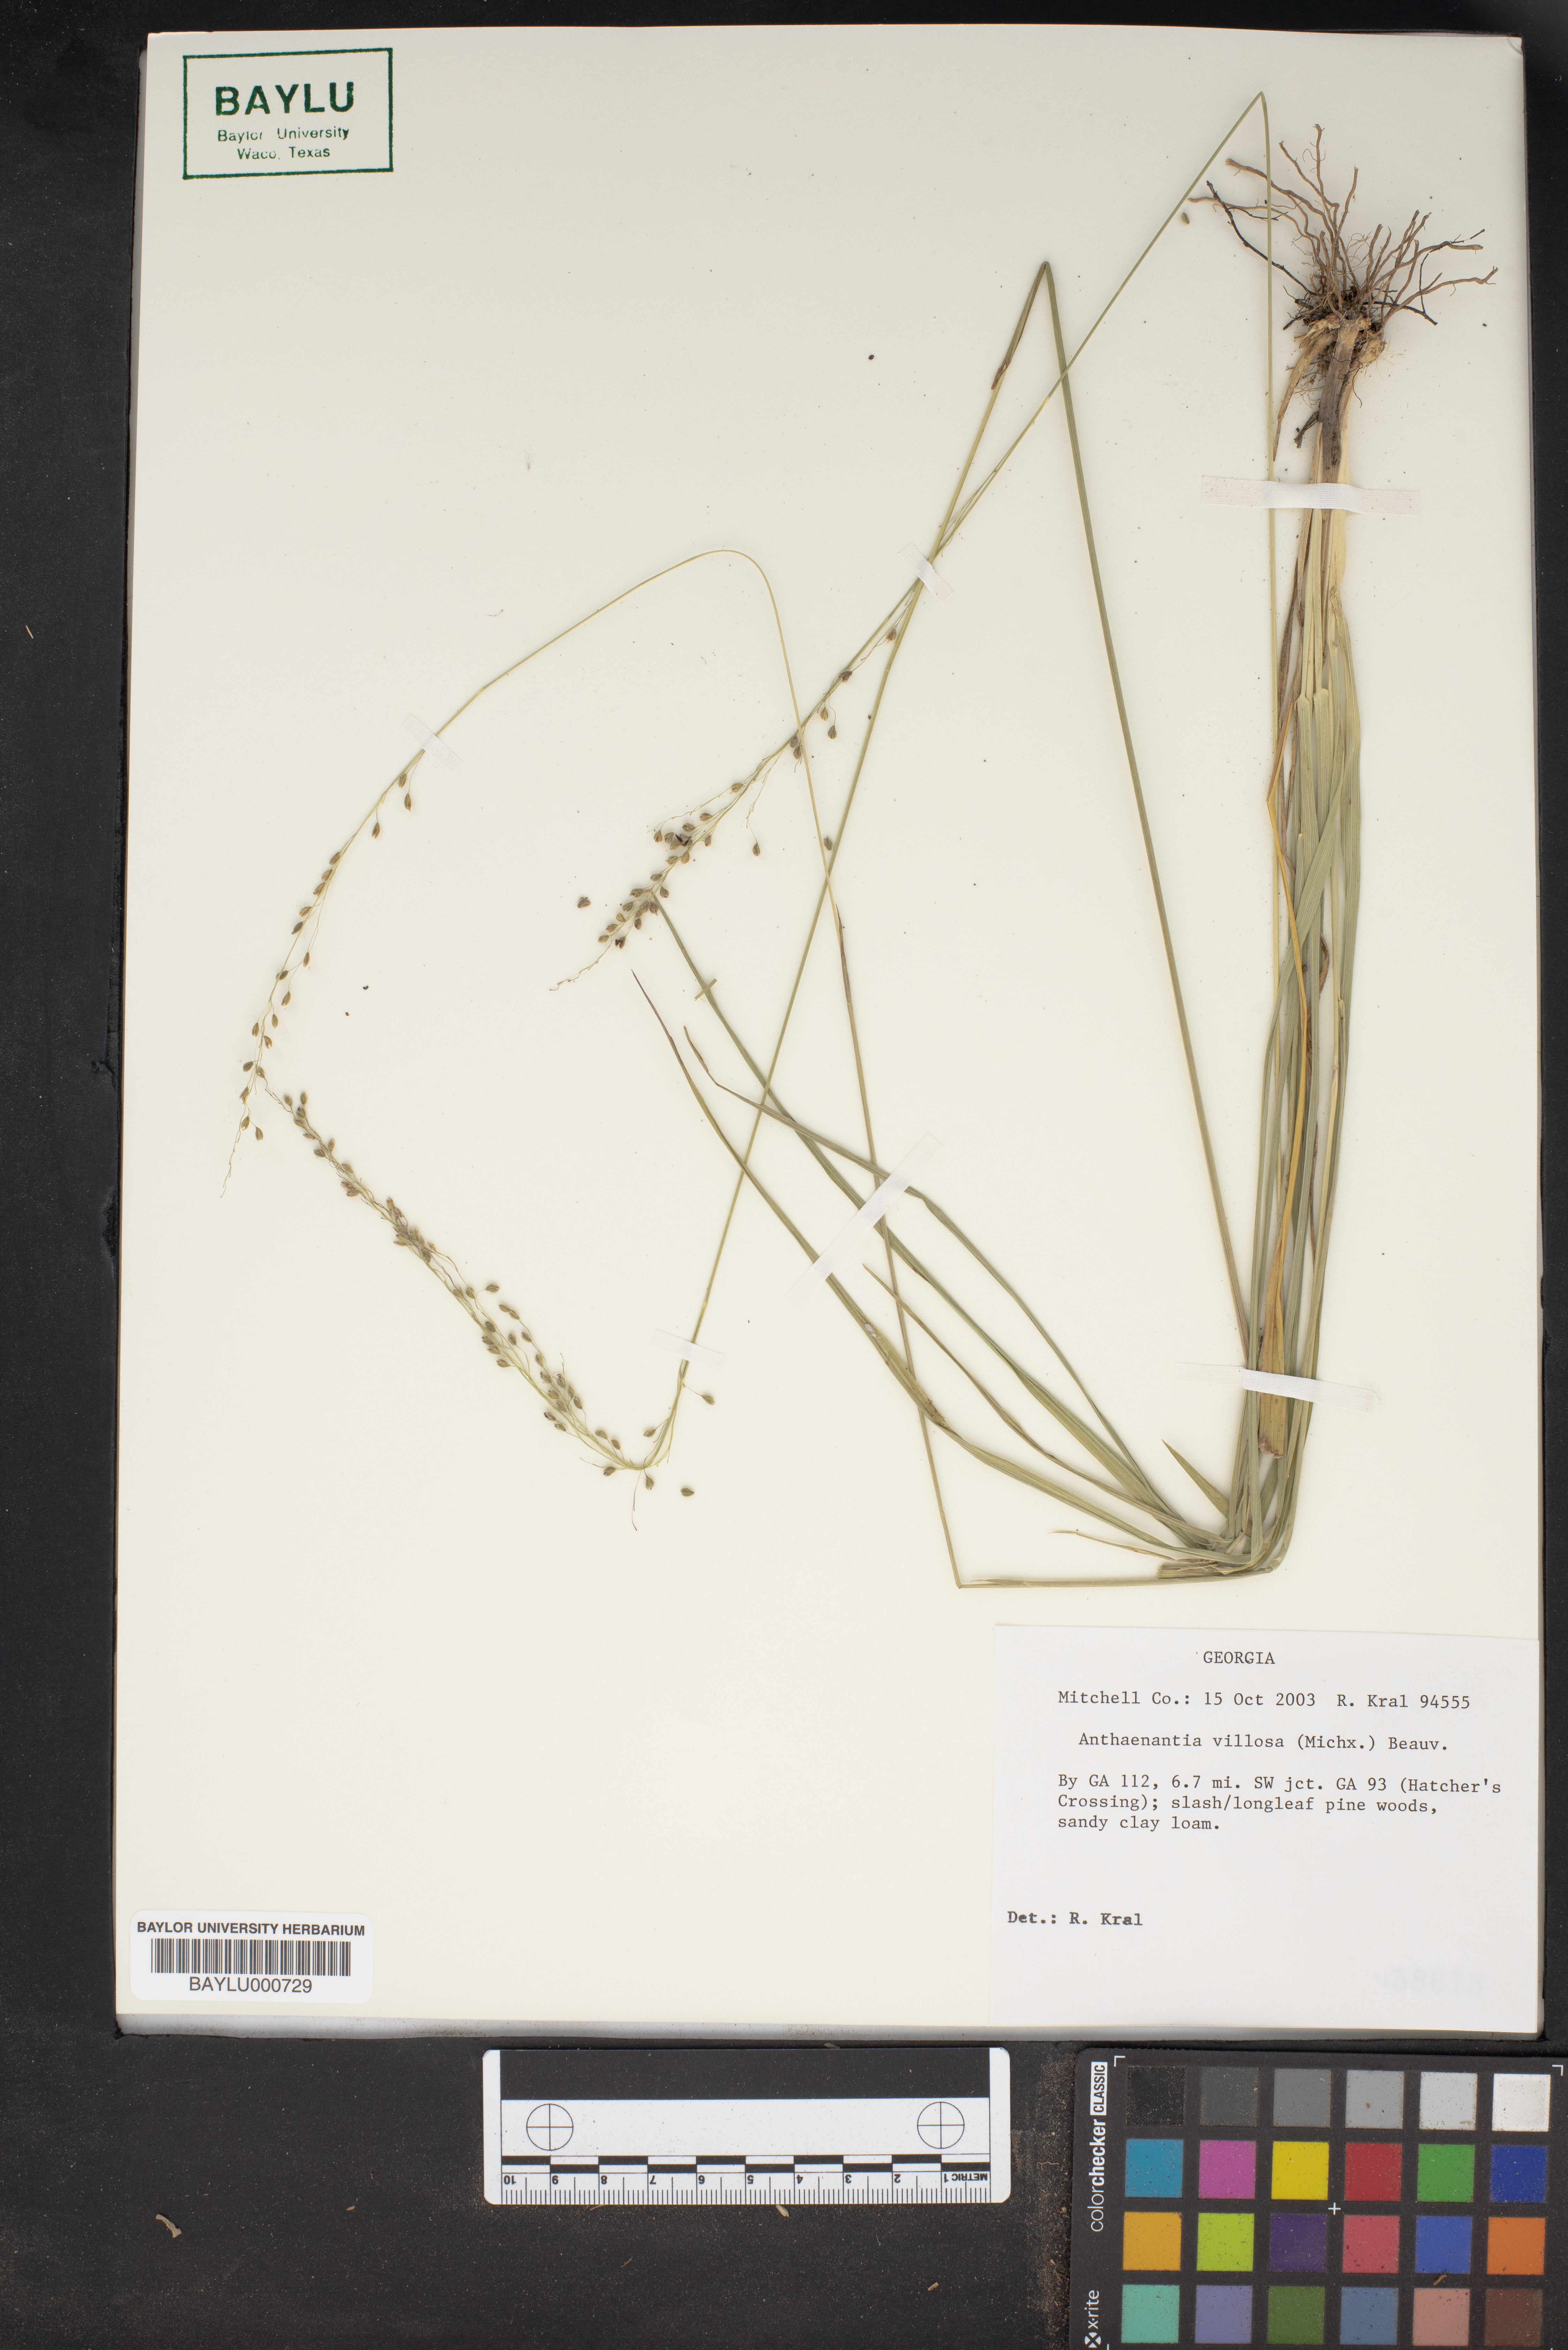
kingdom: Plantae
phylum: Tracheophyta
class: Liliopsida
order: Poales
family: Poaceae
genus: Anthenantia
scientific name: Anthenantia villosa
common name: Green silkyscale
